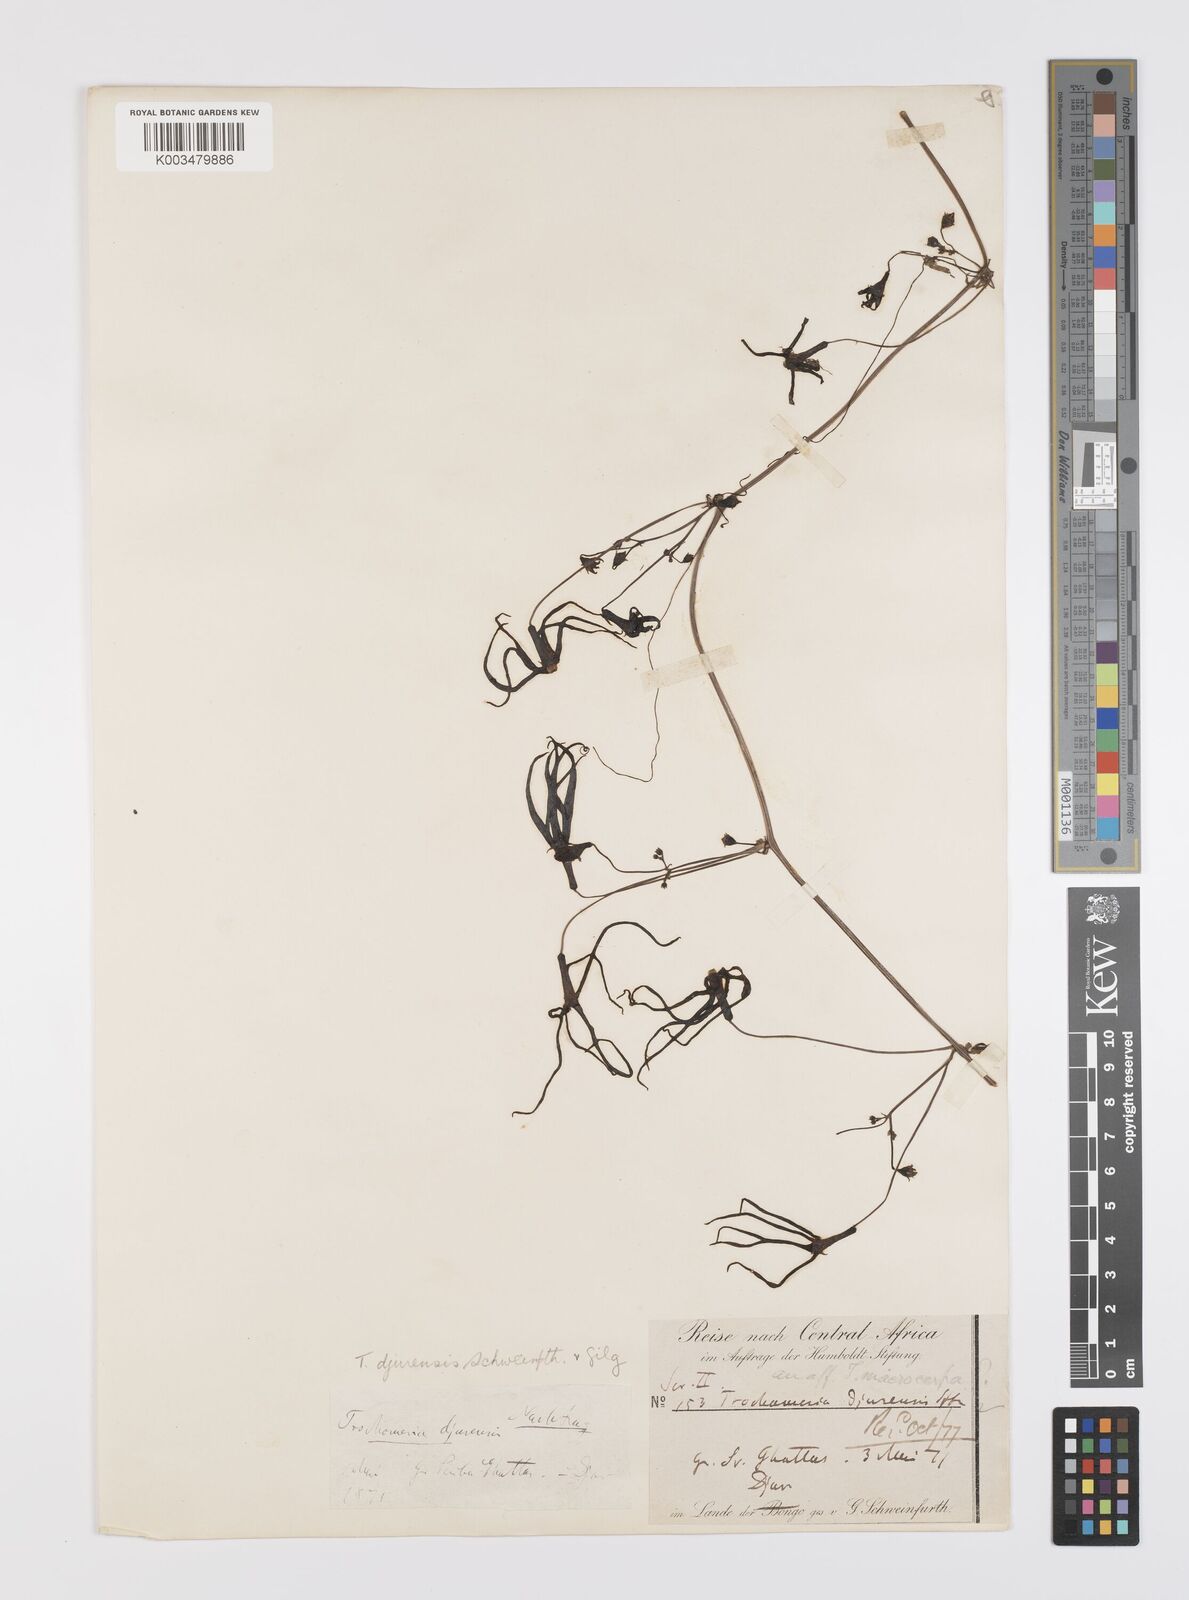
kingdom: Plantae
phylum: Tracheophyta
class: Magnoliopsida
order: Cucurbitales
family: Cucurbitaceae
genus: Trochomeria
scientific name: Trochomeria macrocarpa
